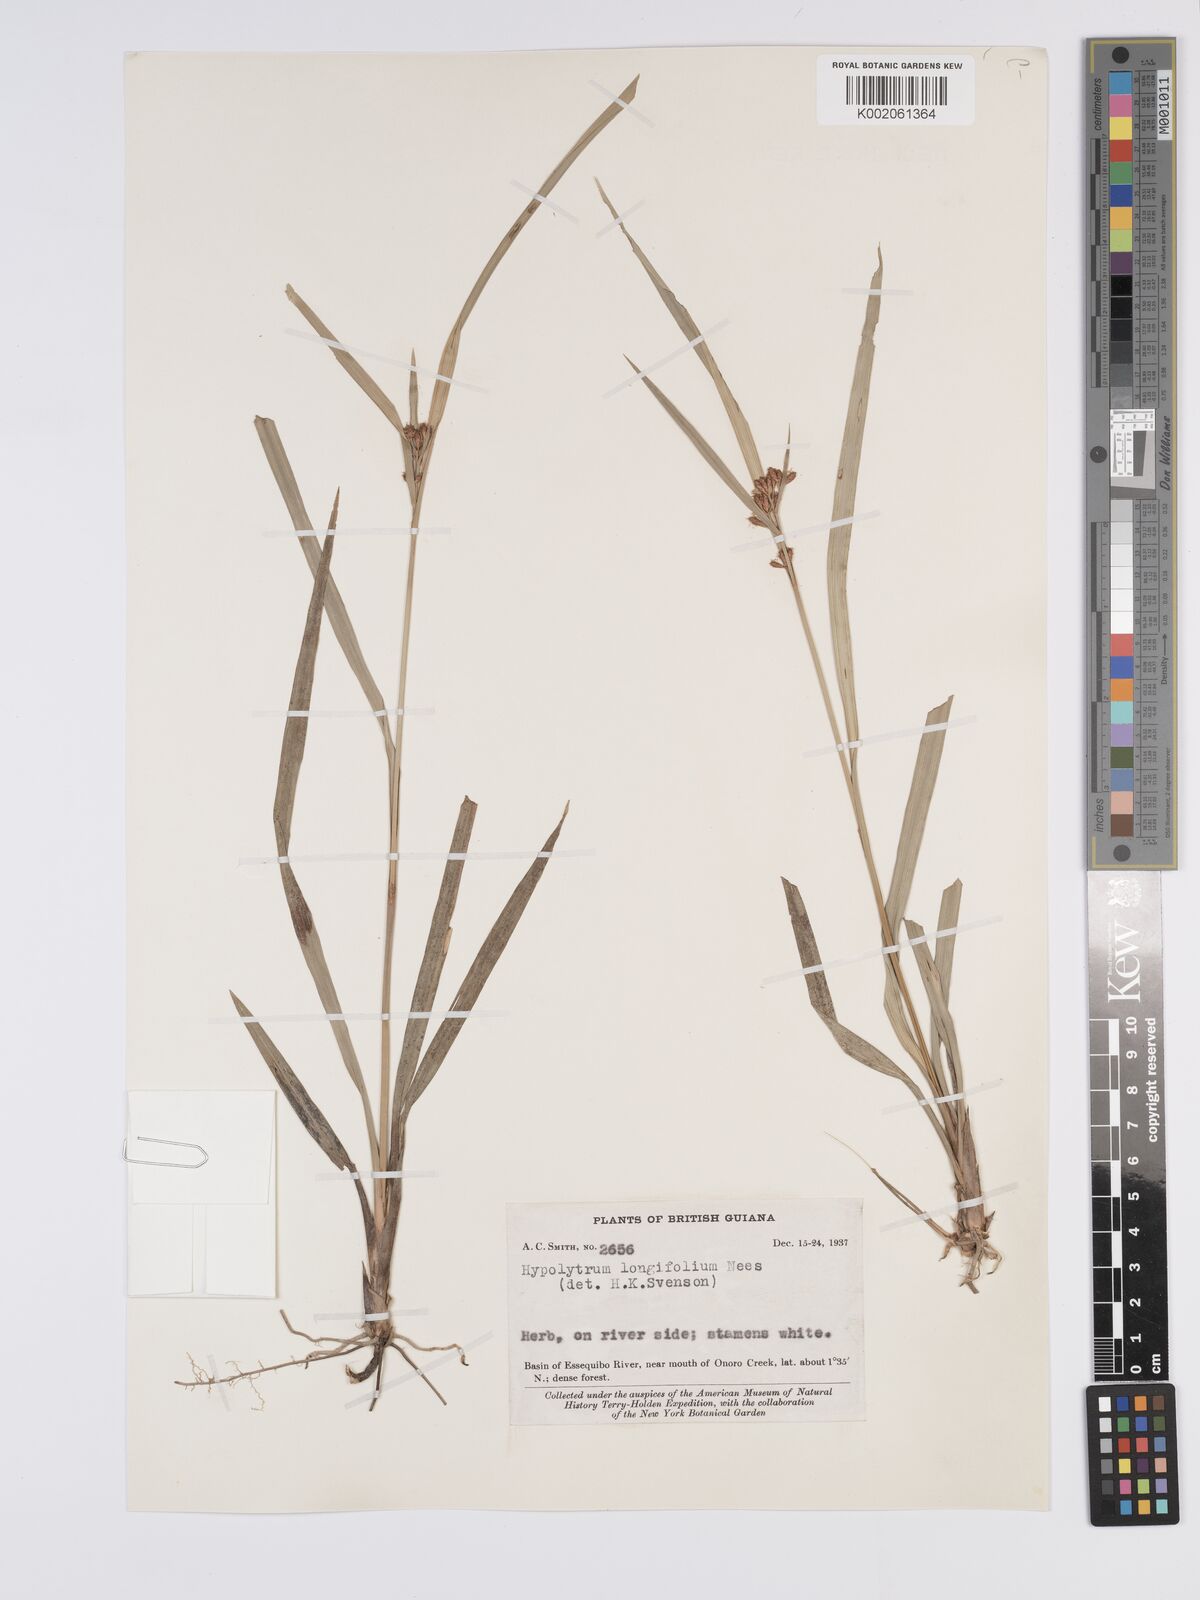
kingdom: Plantae
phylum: Tracheophyta
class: Liliopsida
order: Poales
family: Cyperaceae
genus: Hypolytrum
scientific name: Hypolytrum longifolium
